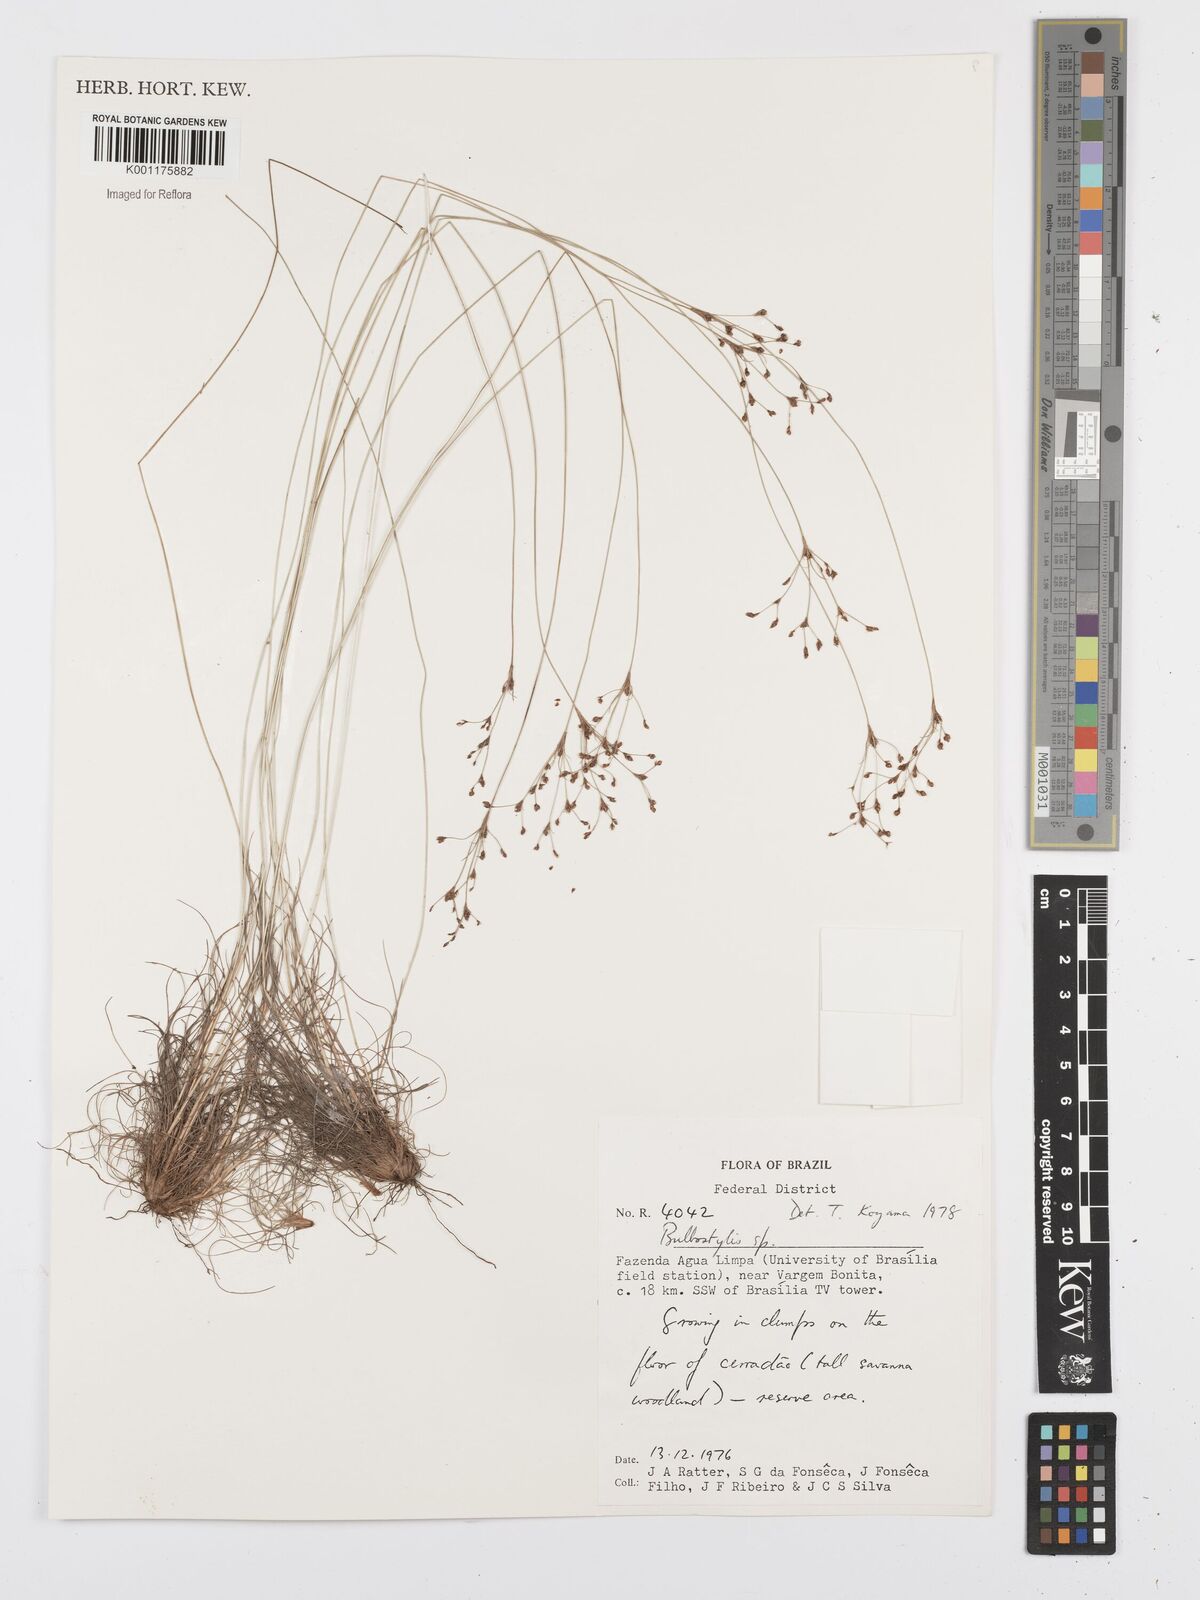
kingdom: Plantae
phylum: Tracheophyta
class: Liliopsida
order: Poales
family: Cyperaceae
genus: Bulbostylis
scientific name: Bulbostylis
